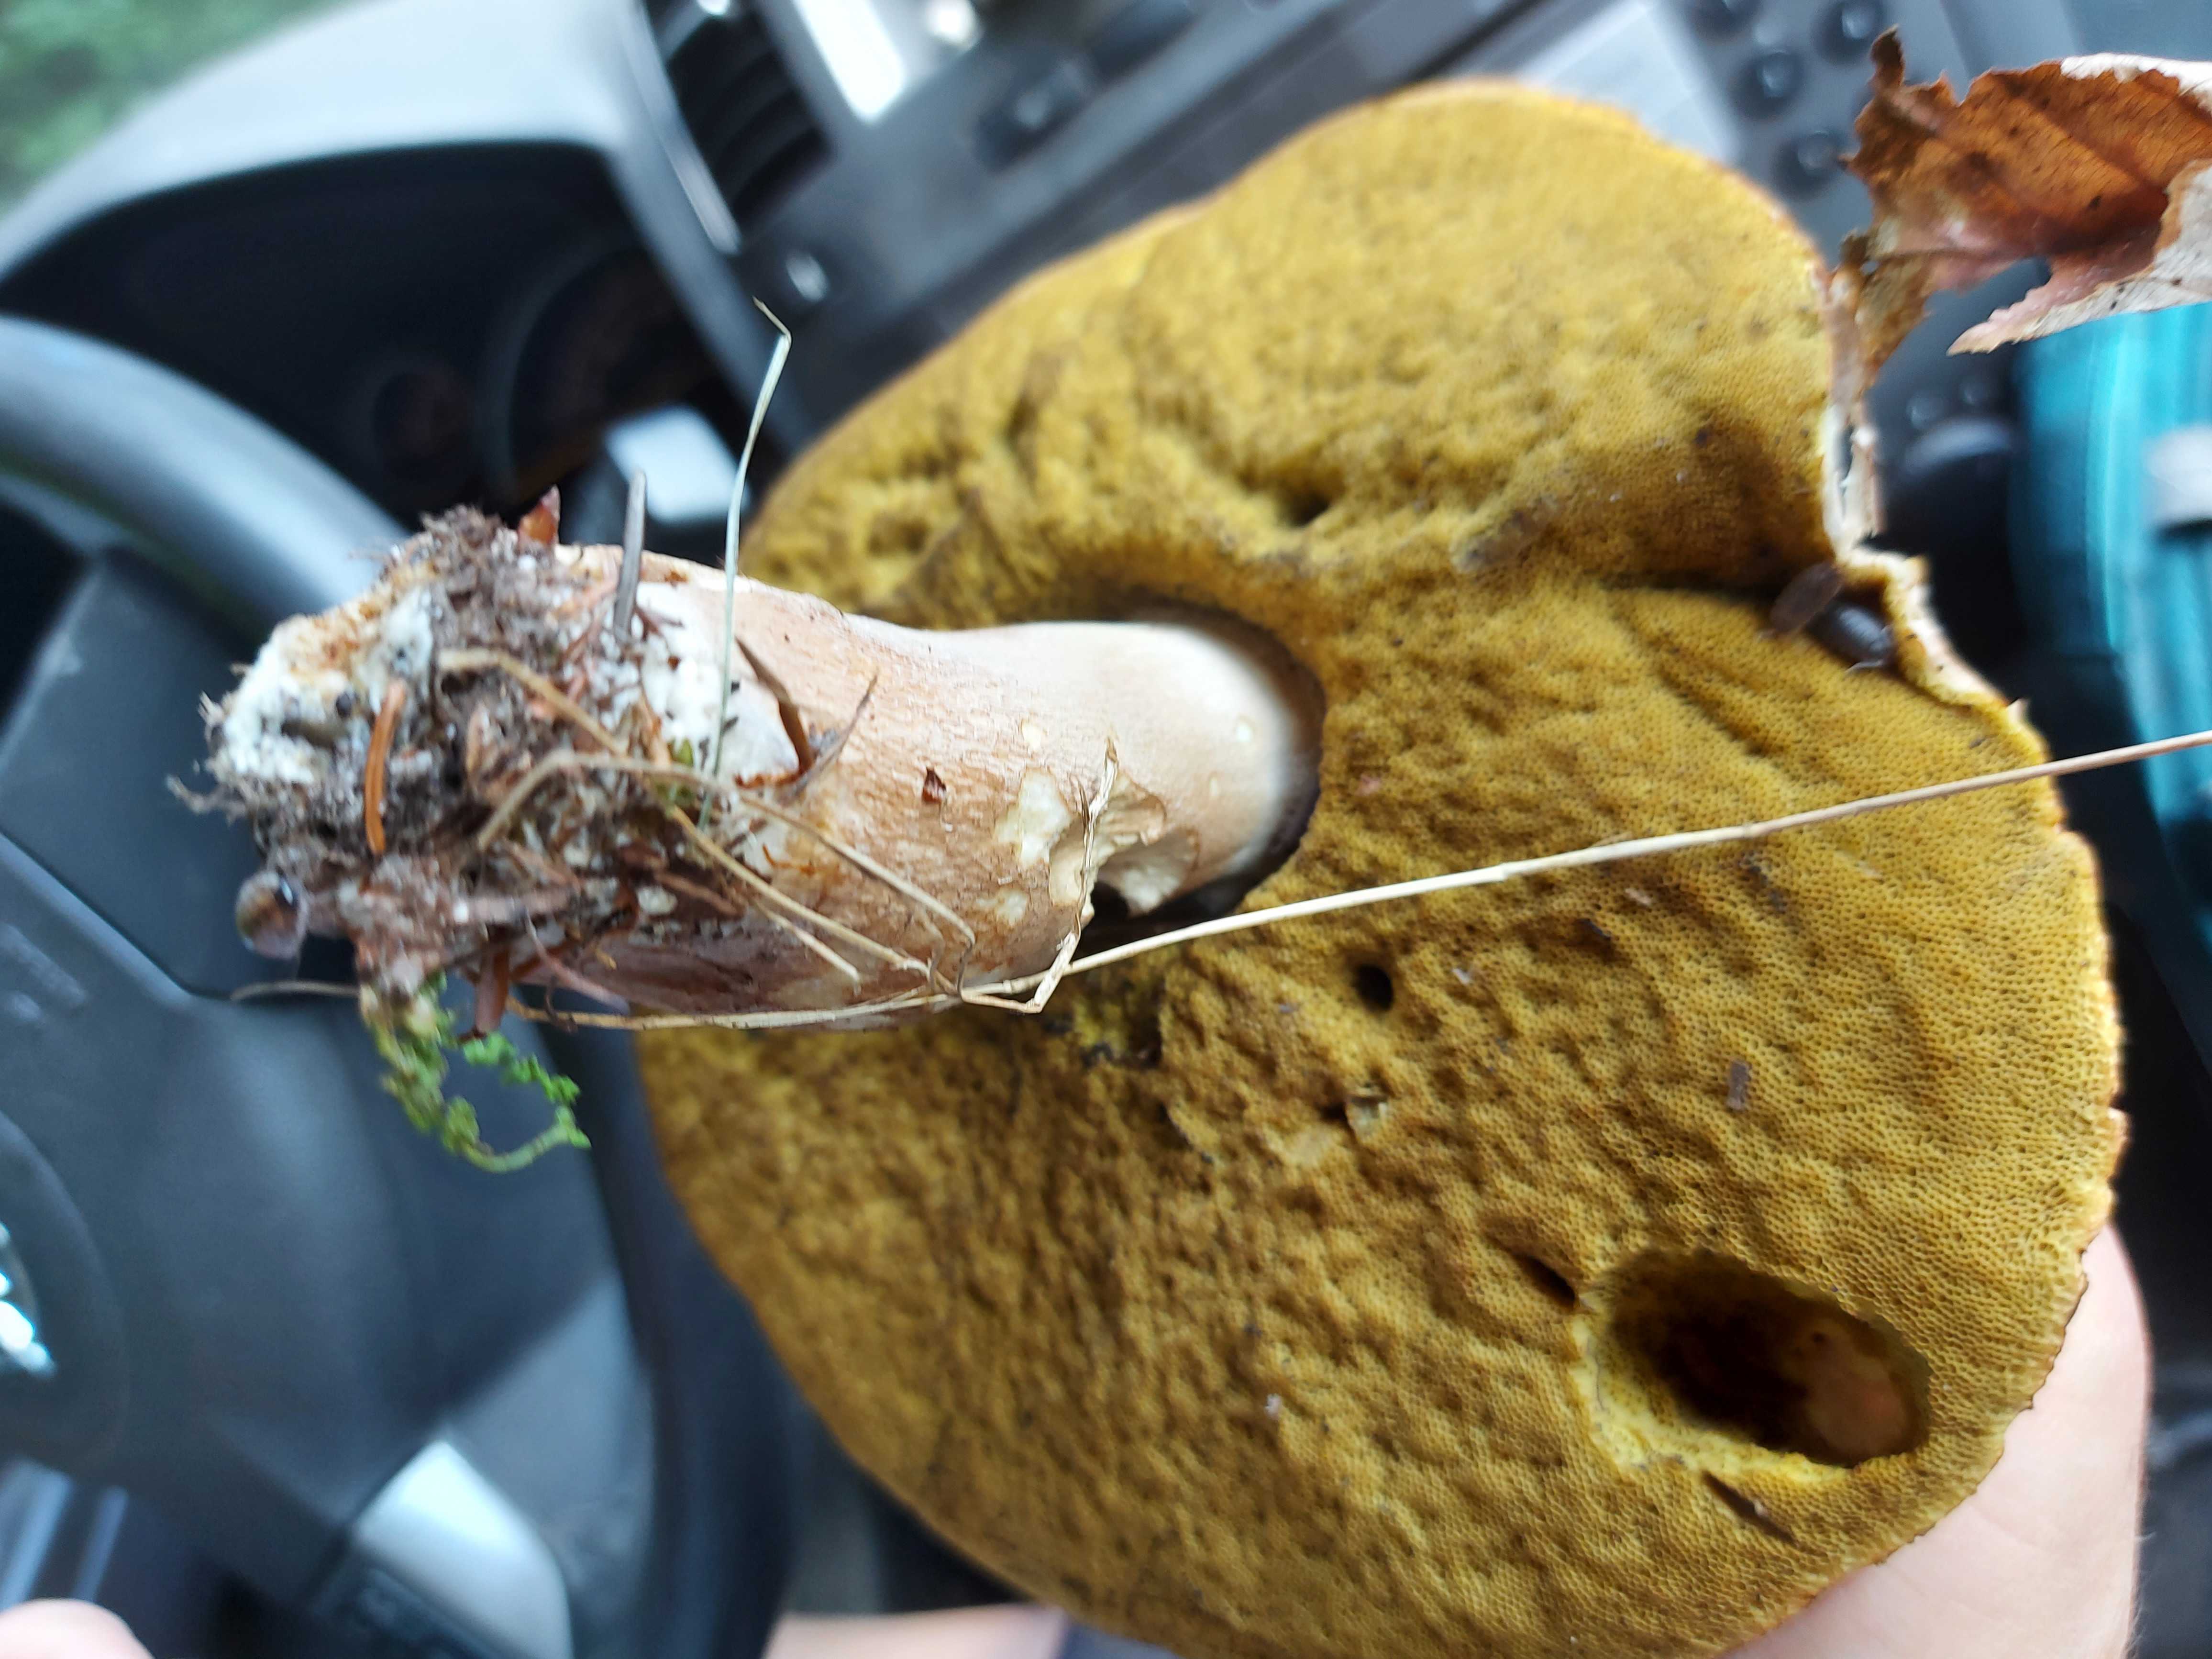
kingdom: Fungi
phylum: Basidiomycota
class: Agaricomycetes
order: Boletales
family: Boletaceae
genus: Boletus
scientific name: Boletus reticulatus
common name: sommer-rørhat
